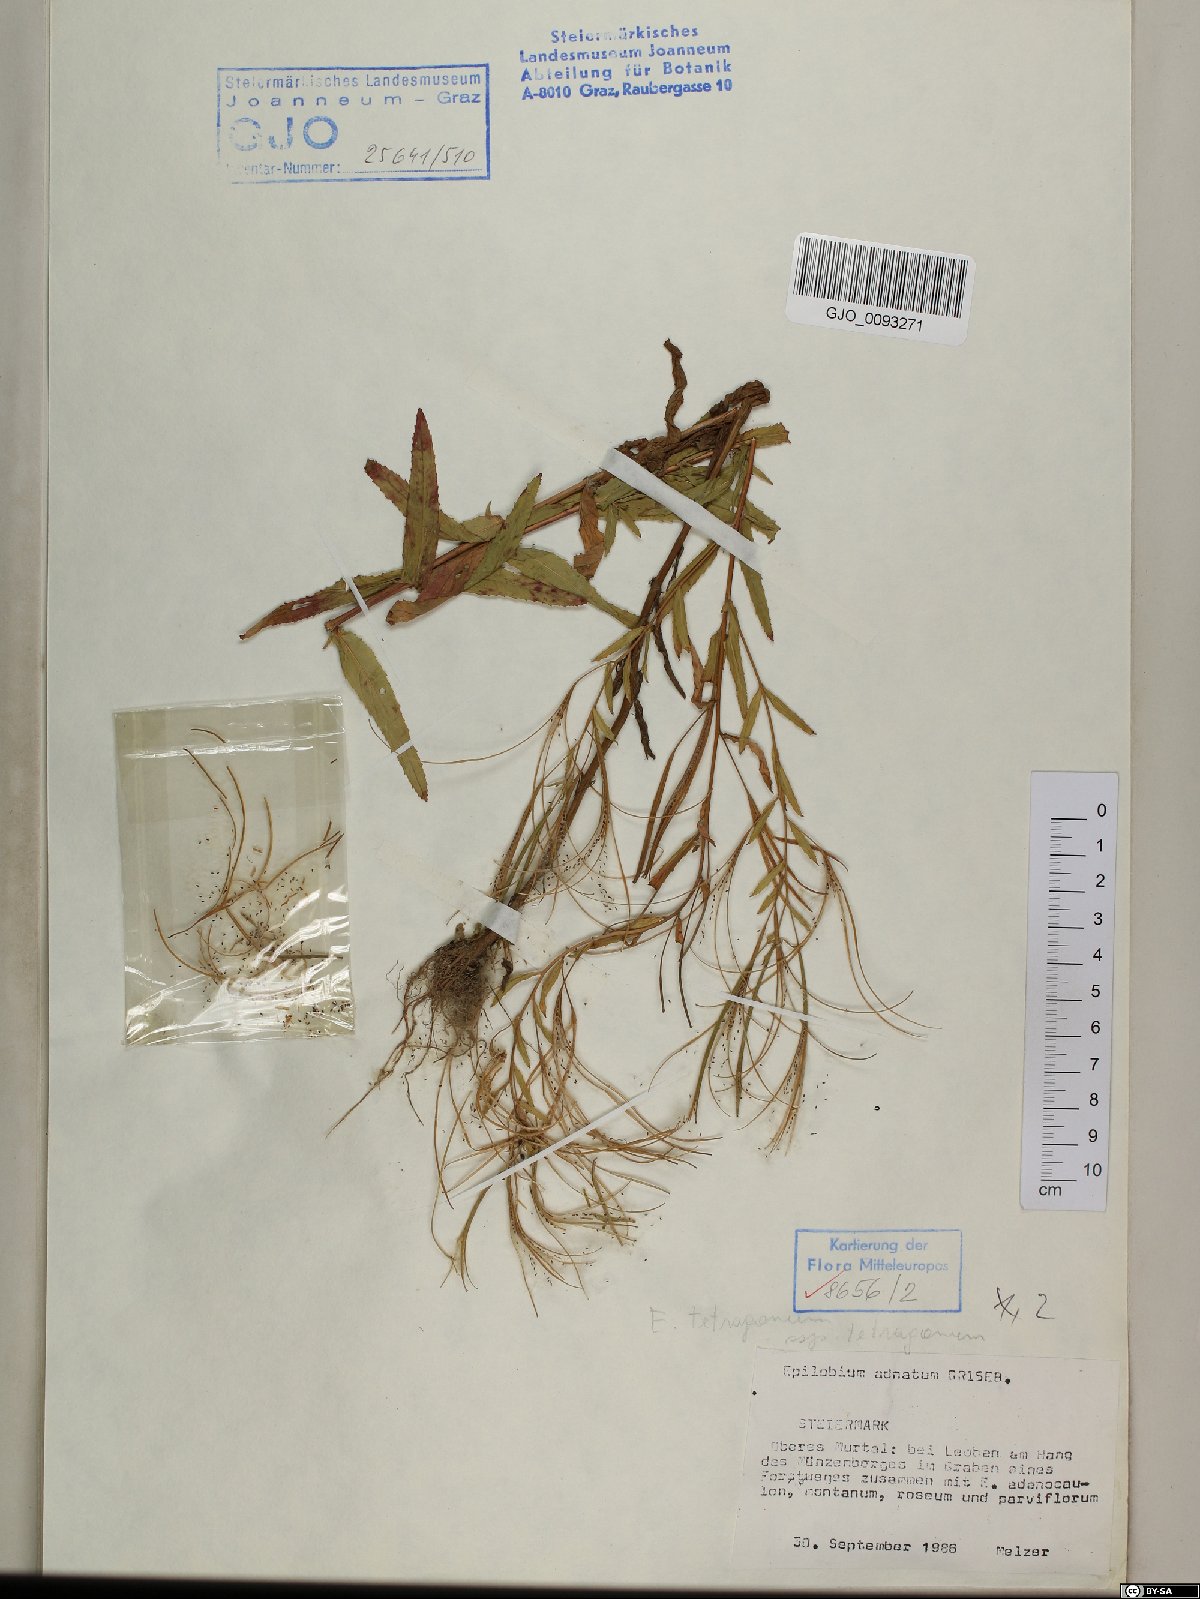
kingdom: Plantae
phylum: Tracheophyta
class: Magnoliopsida
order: Myrtales
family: Onagraceae
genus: Epilobium
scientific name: Epilobium tetragonum
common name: Square-stemmed willowherb
